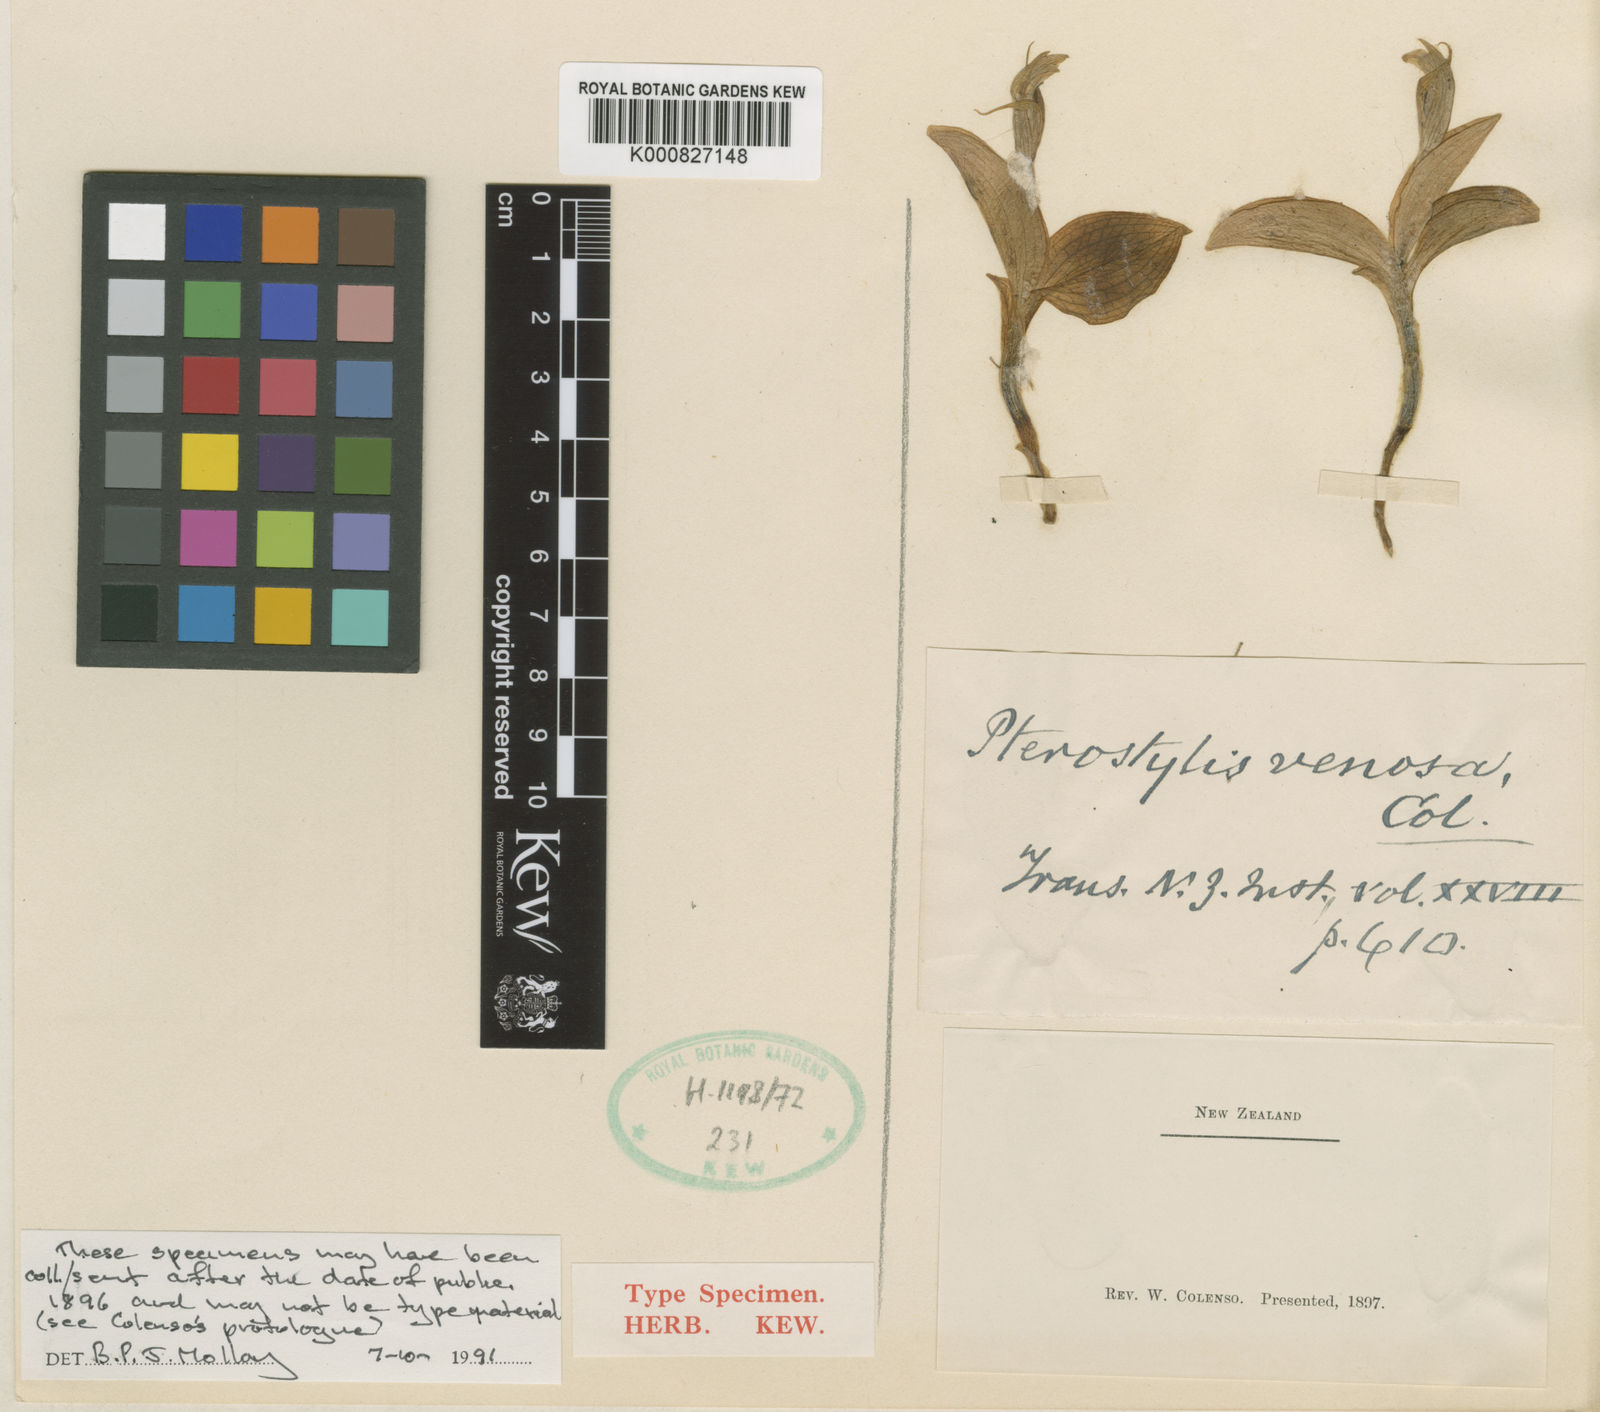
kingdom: Plantae
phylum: Tracheophyta
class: Liliopsida
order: Asparagales
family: Orchidaceae
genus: Pterostylis
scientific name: Pterostylis venosa
